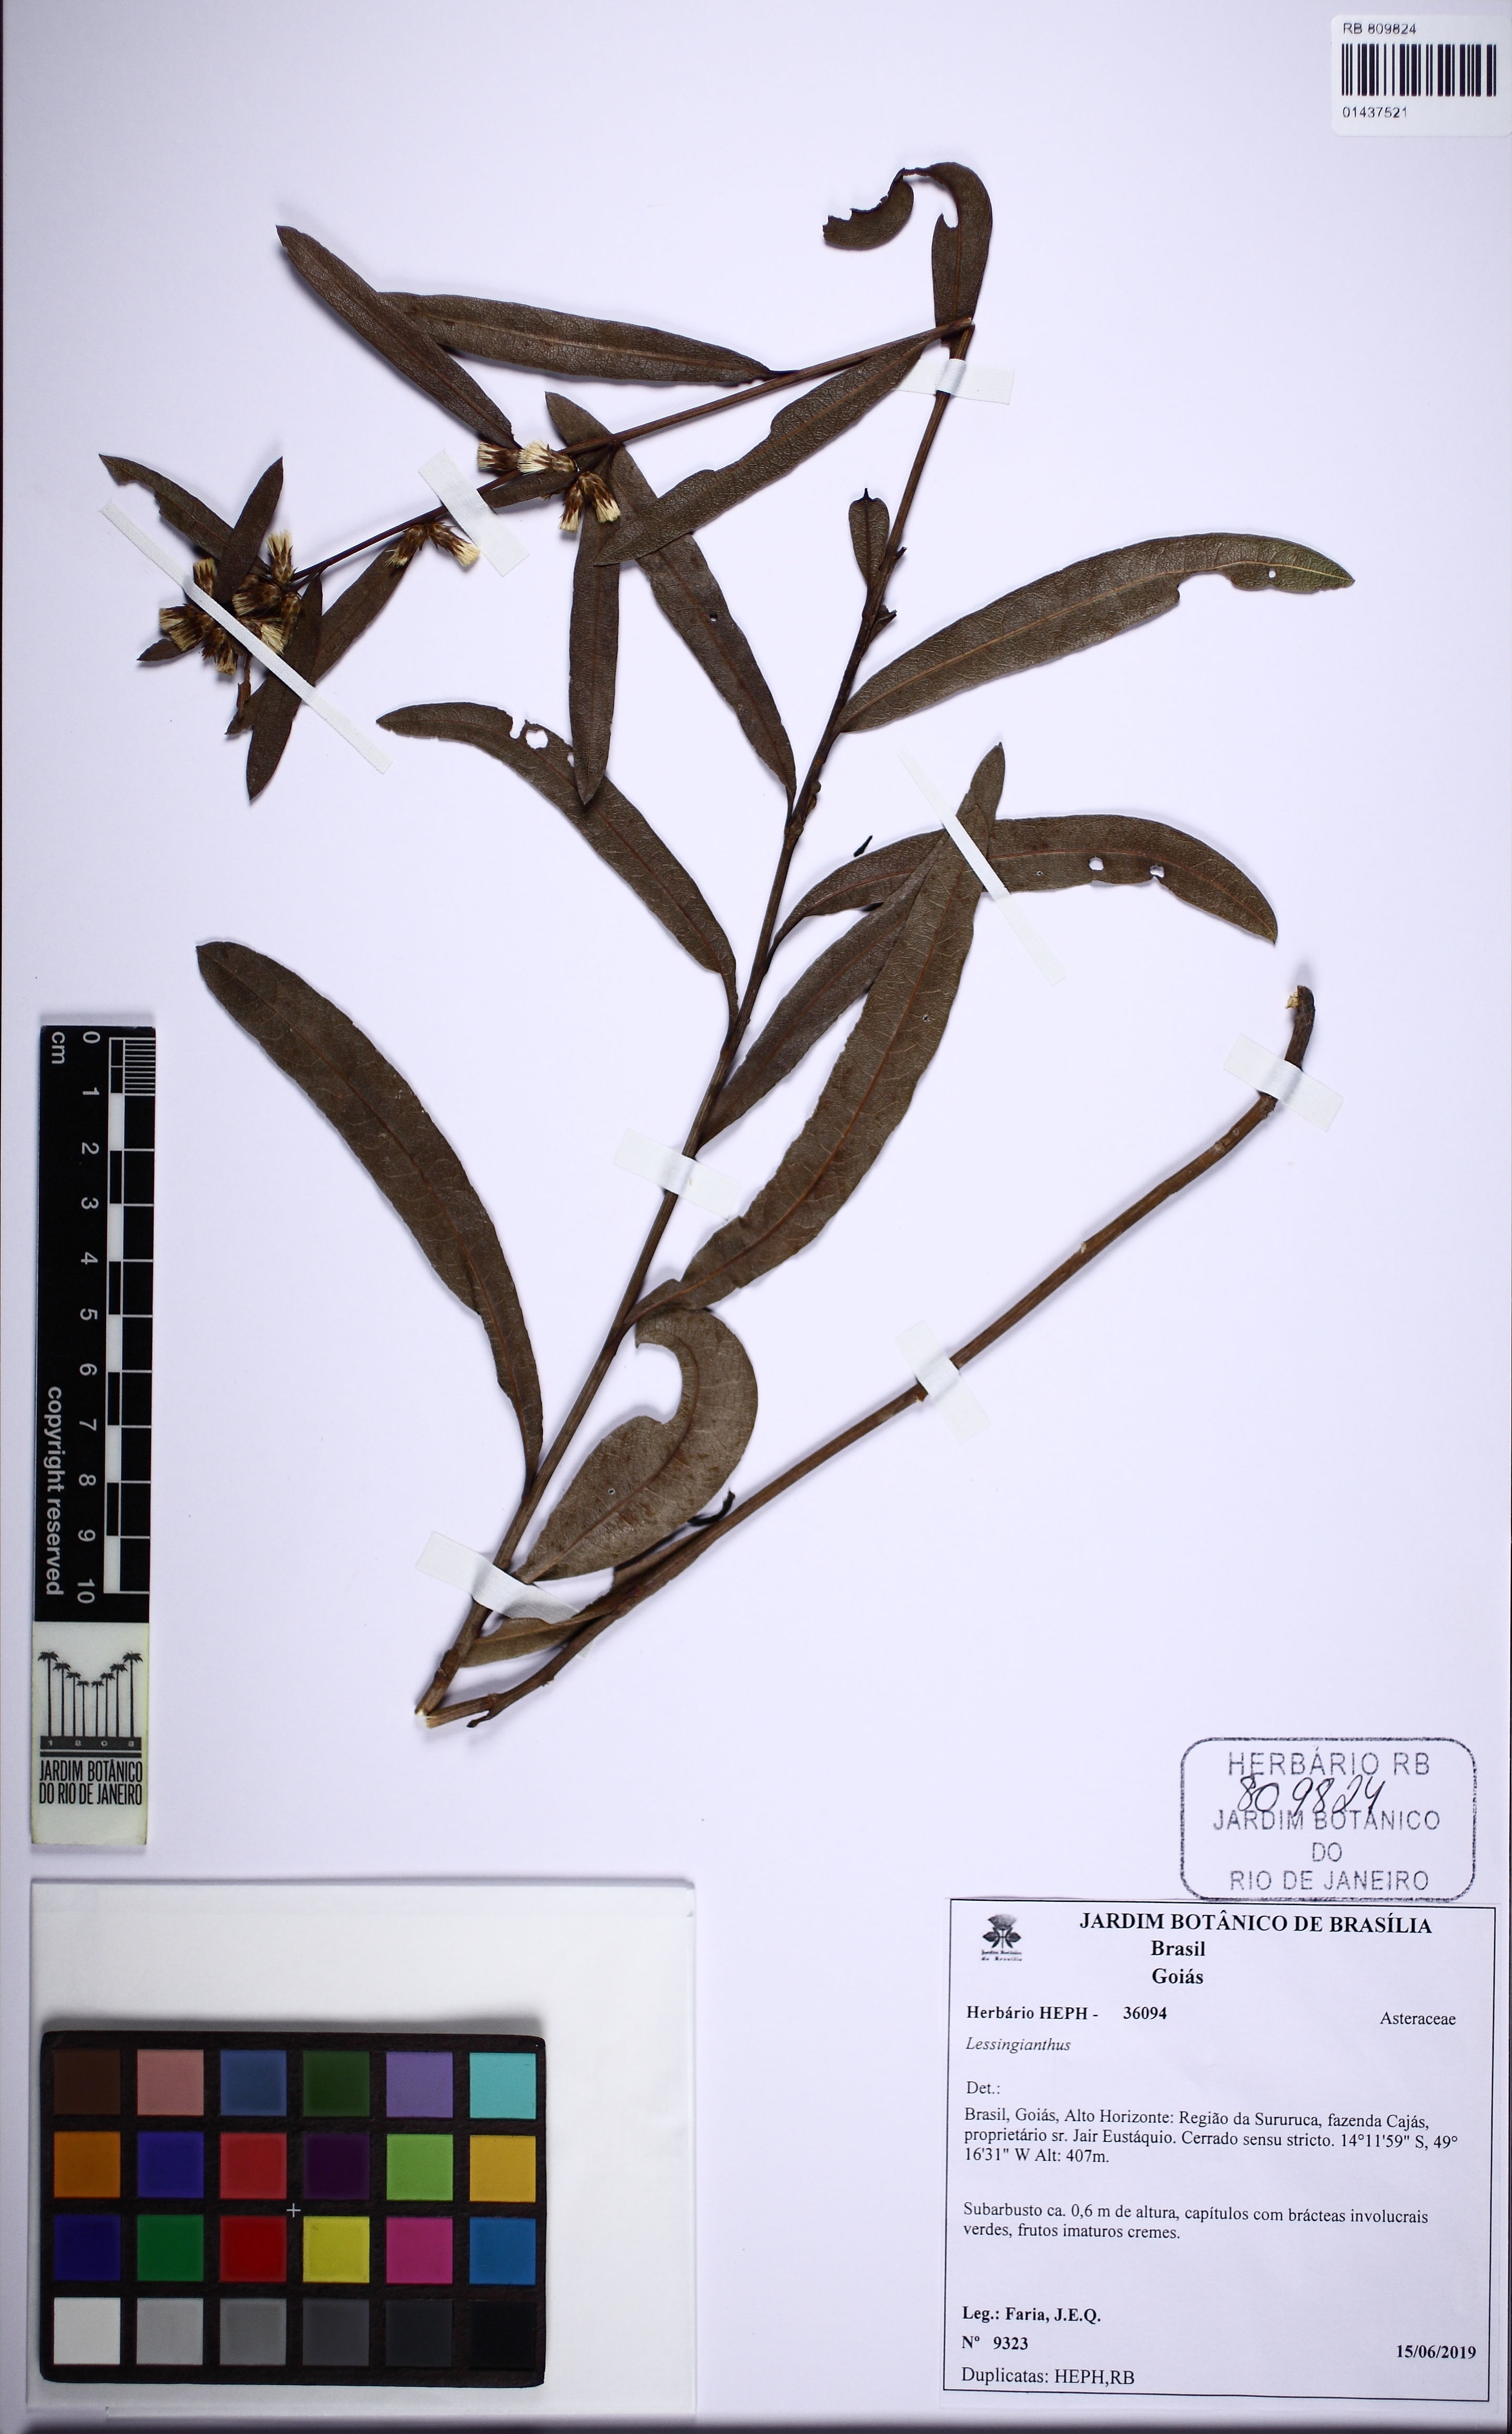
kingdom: Plantae
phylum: Tracheophyta
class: Magnoliopsida
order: Asterales
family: Asteraceae
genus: Lessingianthus
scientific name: Lessingianthus
